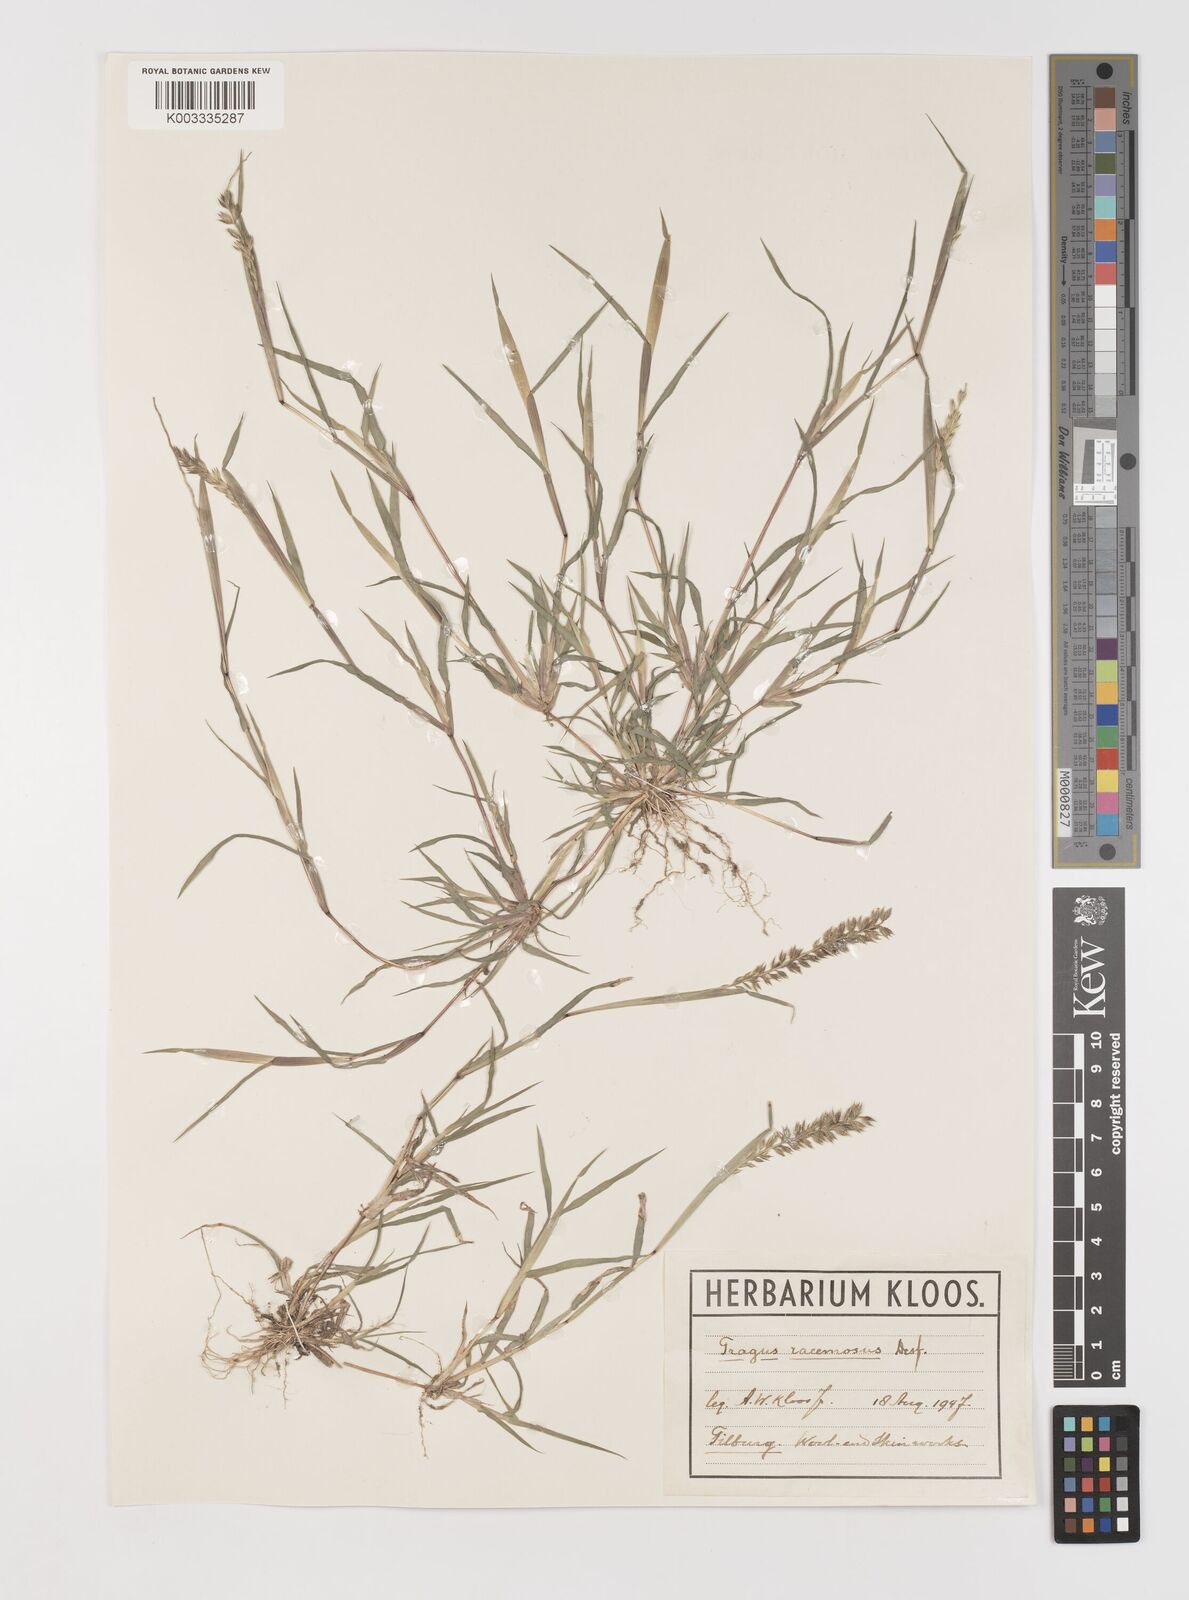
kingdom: Plantae
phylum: Tracheophyta
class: Liliopsida
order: Poales
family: Poaceae
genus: Tragus
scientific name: Tragus racemosus
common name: European bur-grass
